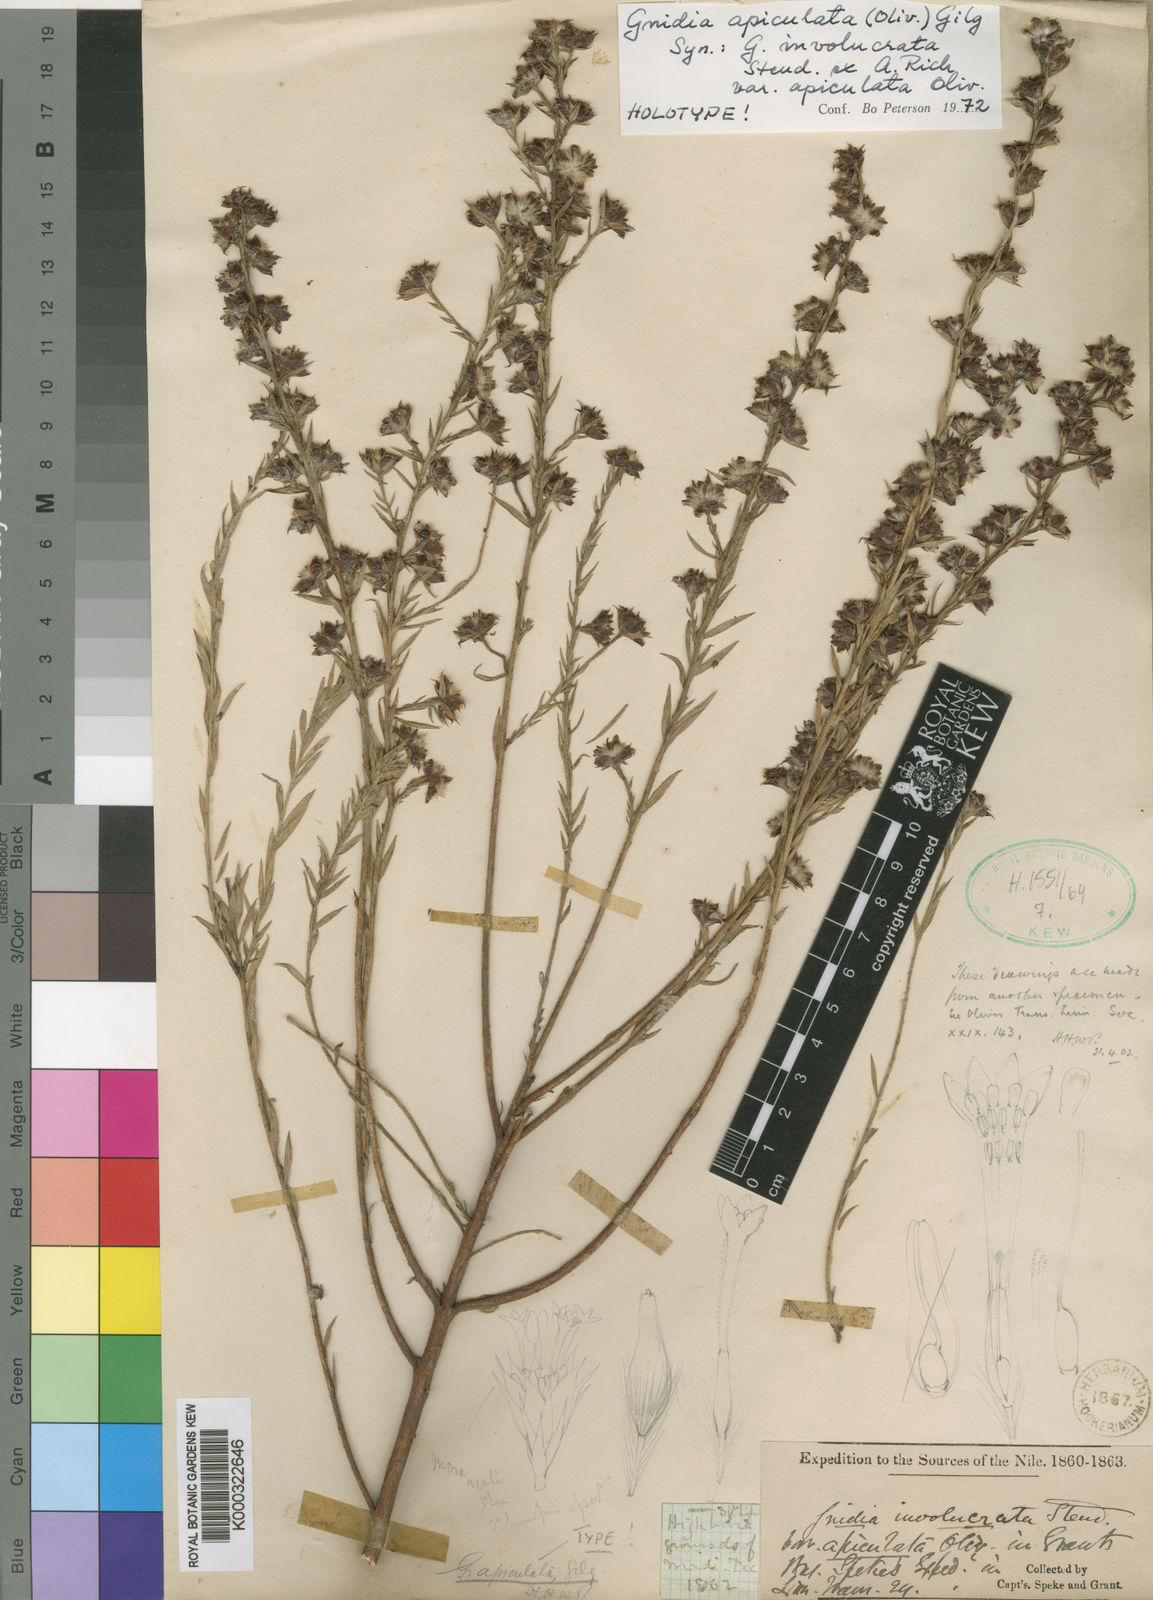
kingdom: Plantae
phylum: Tracheophyta
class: Magnoliopsida
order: Malvales
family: Thymelaeaceae
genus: Gnidia
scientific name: Gnidia apiculata
